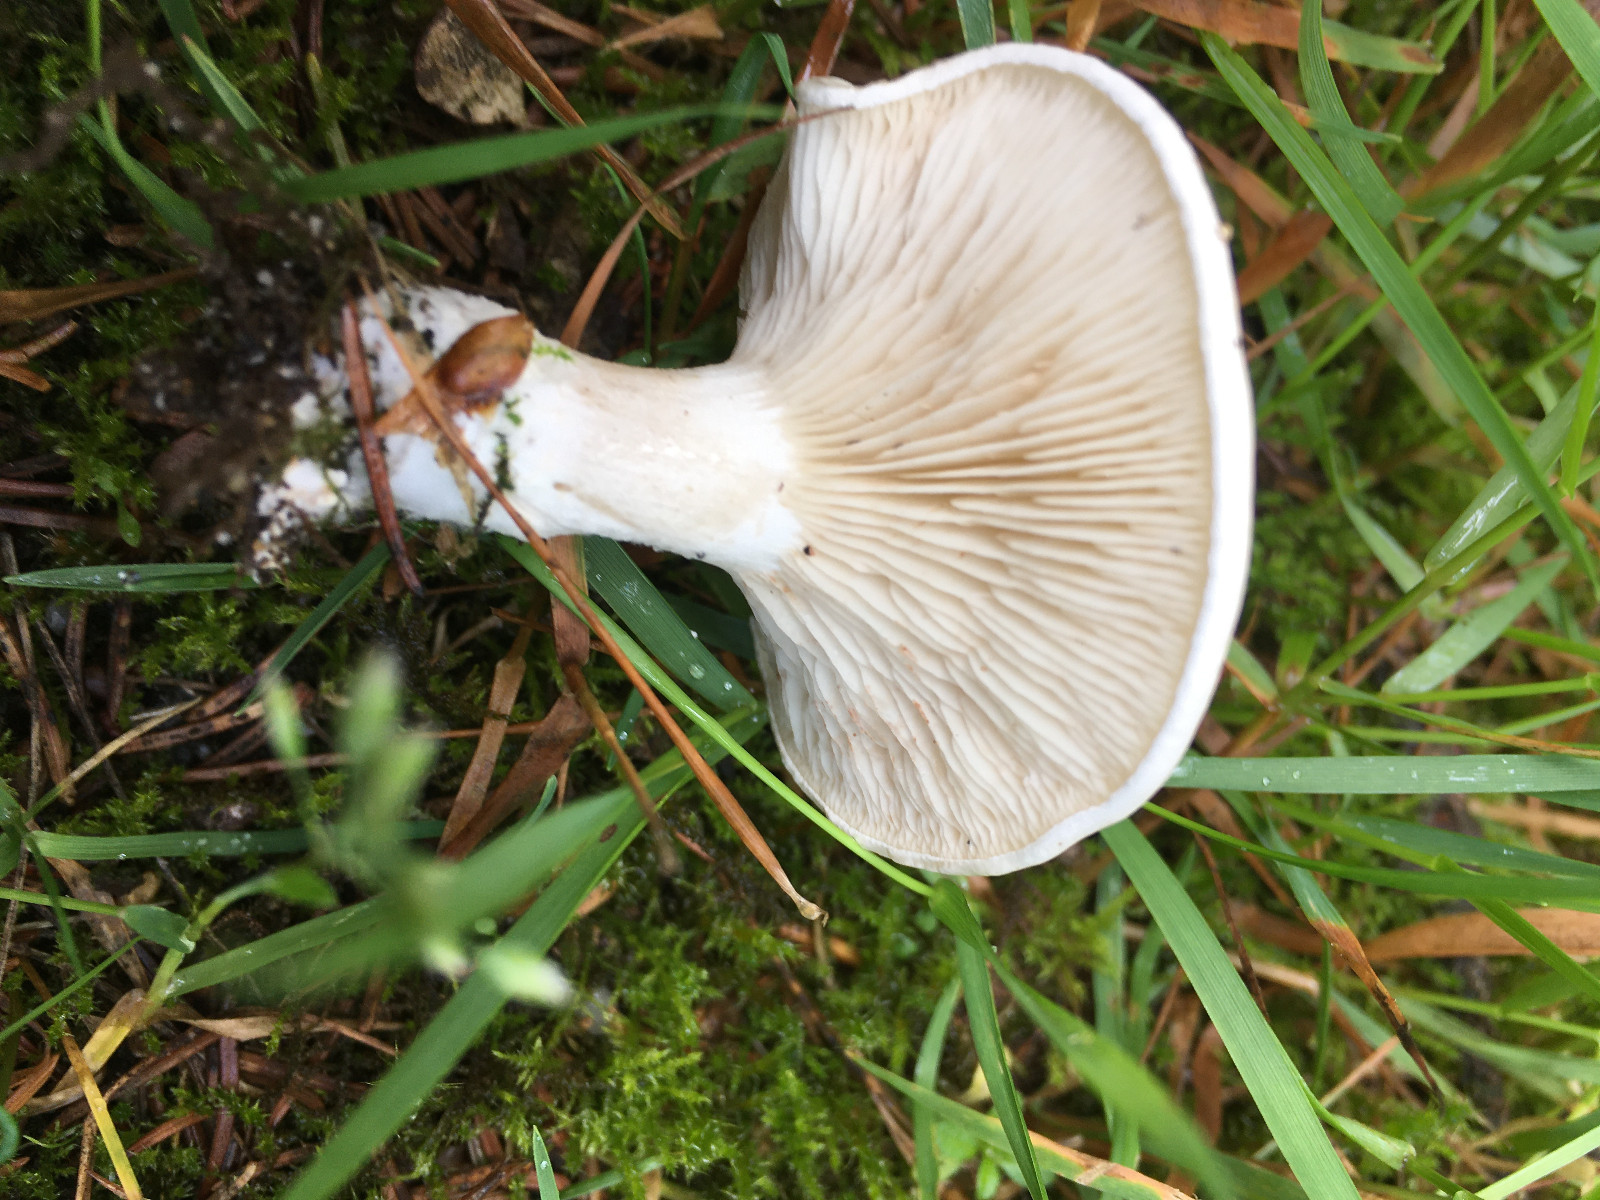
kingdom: Fungi
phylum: Basidiomycota
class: Agaricomycetes
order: Agaricales
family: Entolomataceae
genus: Clitopilus
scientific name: Clitopilus prunulus
